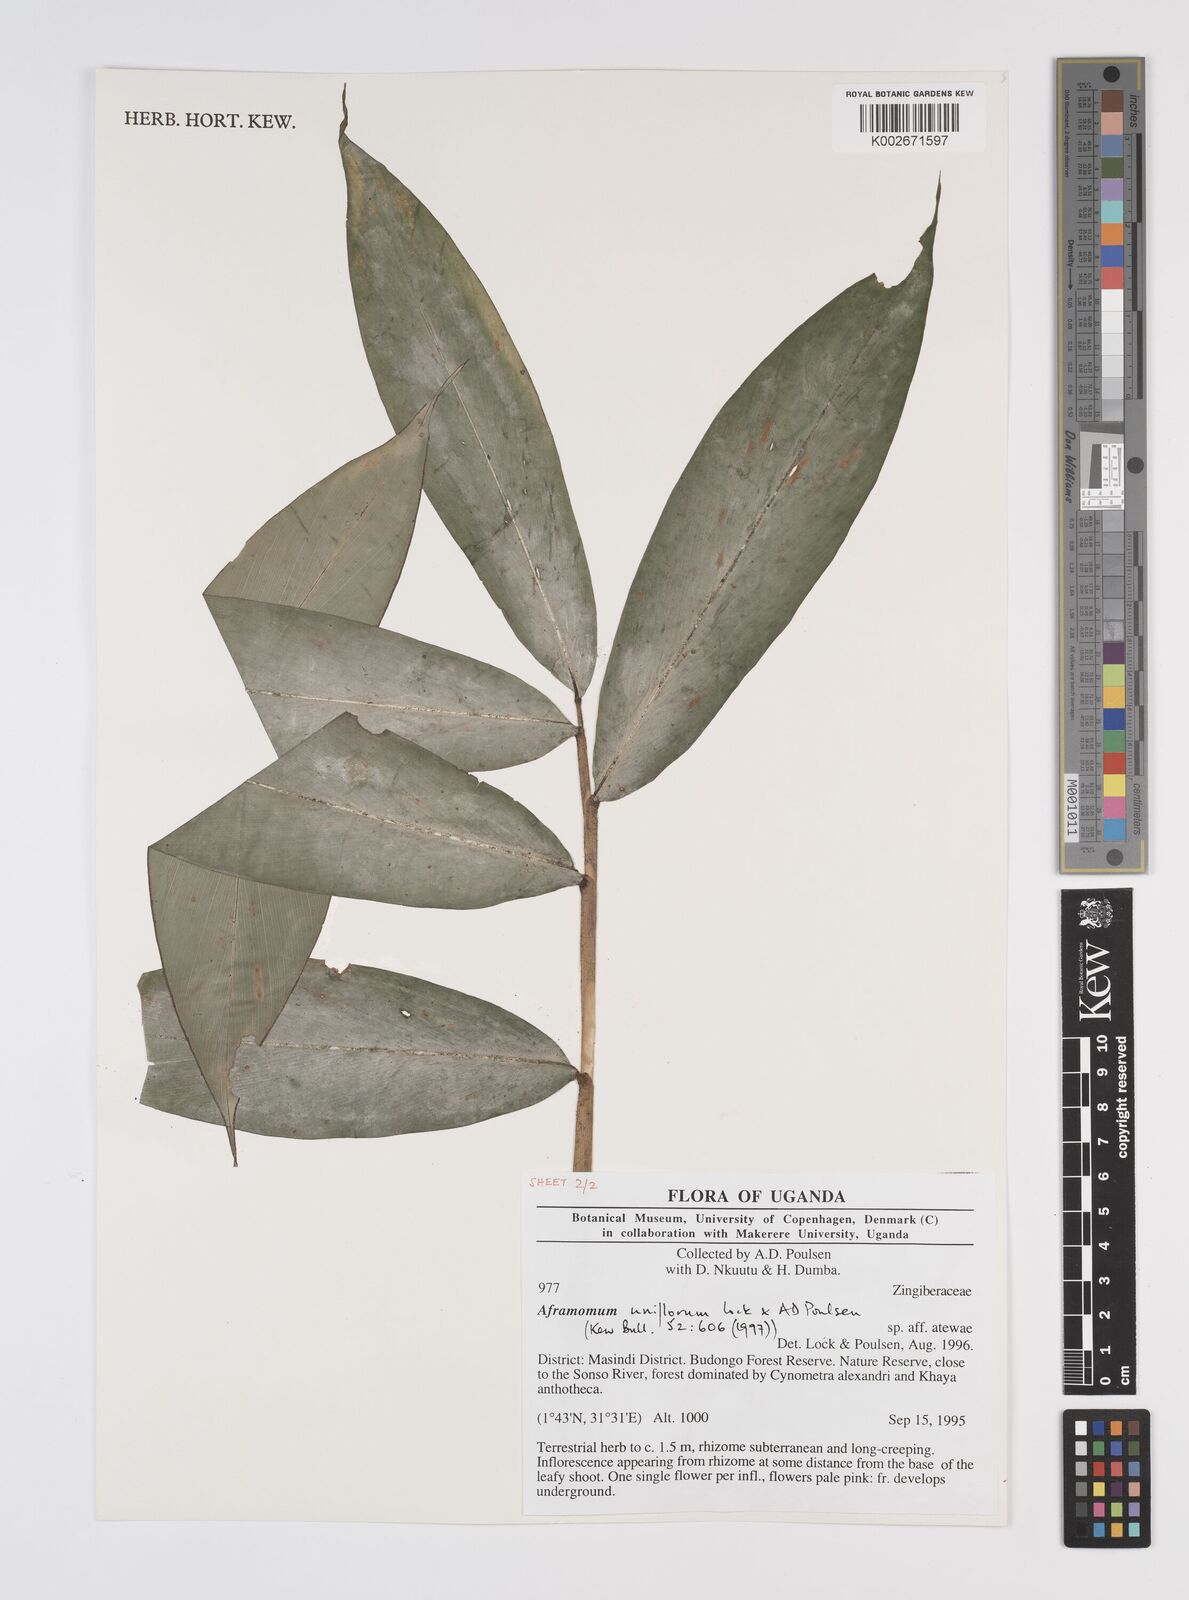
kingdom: Plantae
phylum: Tracheophyta
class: Liliopsida
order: Zingiberales
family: Zingiberaceae
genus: Aframomum
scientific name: Aframomum uniflorum
